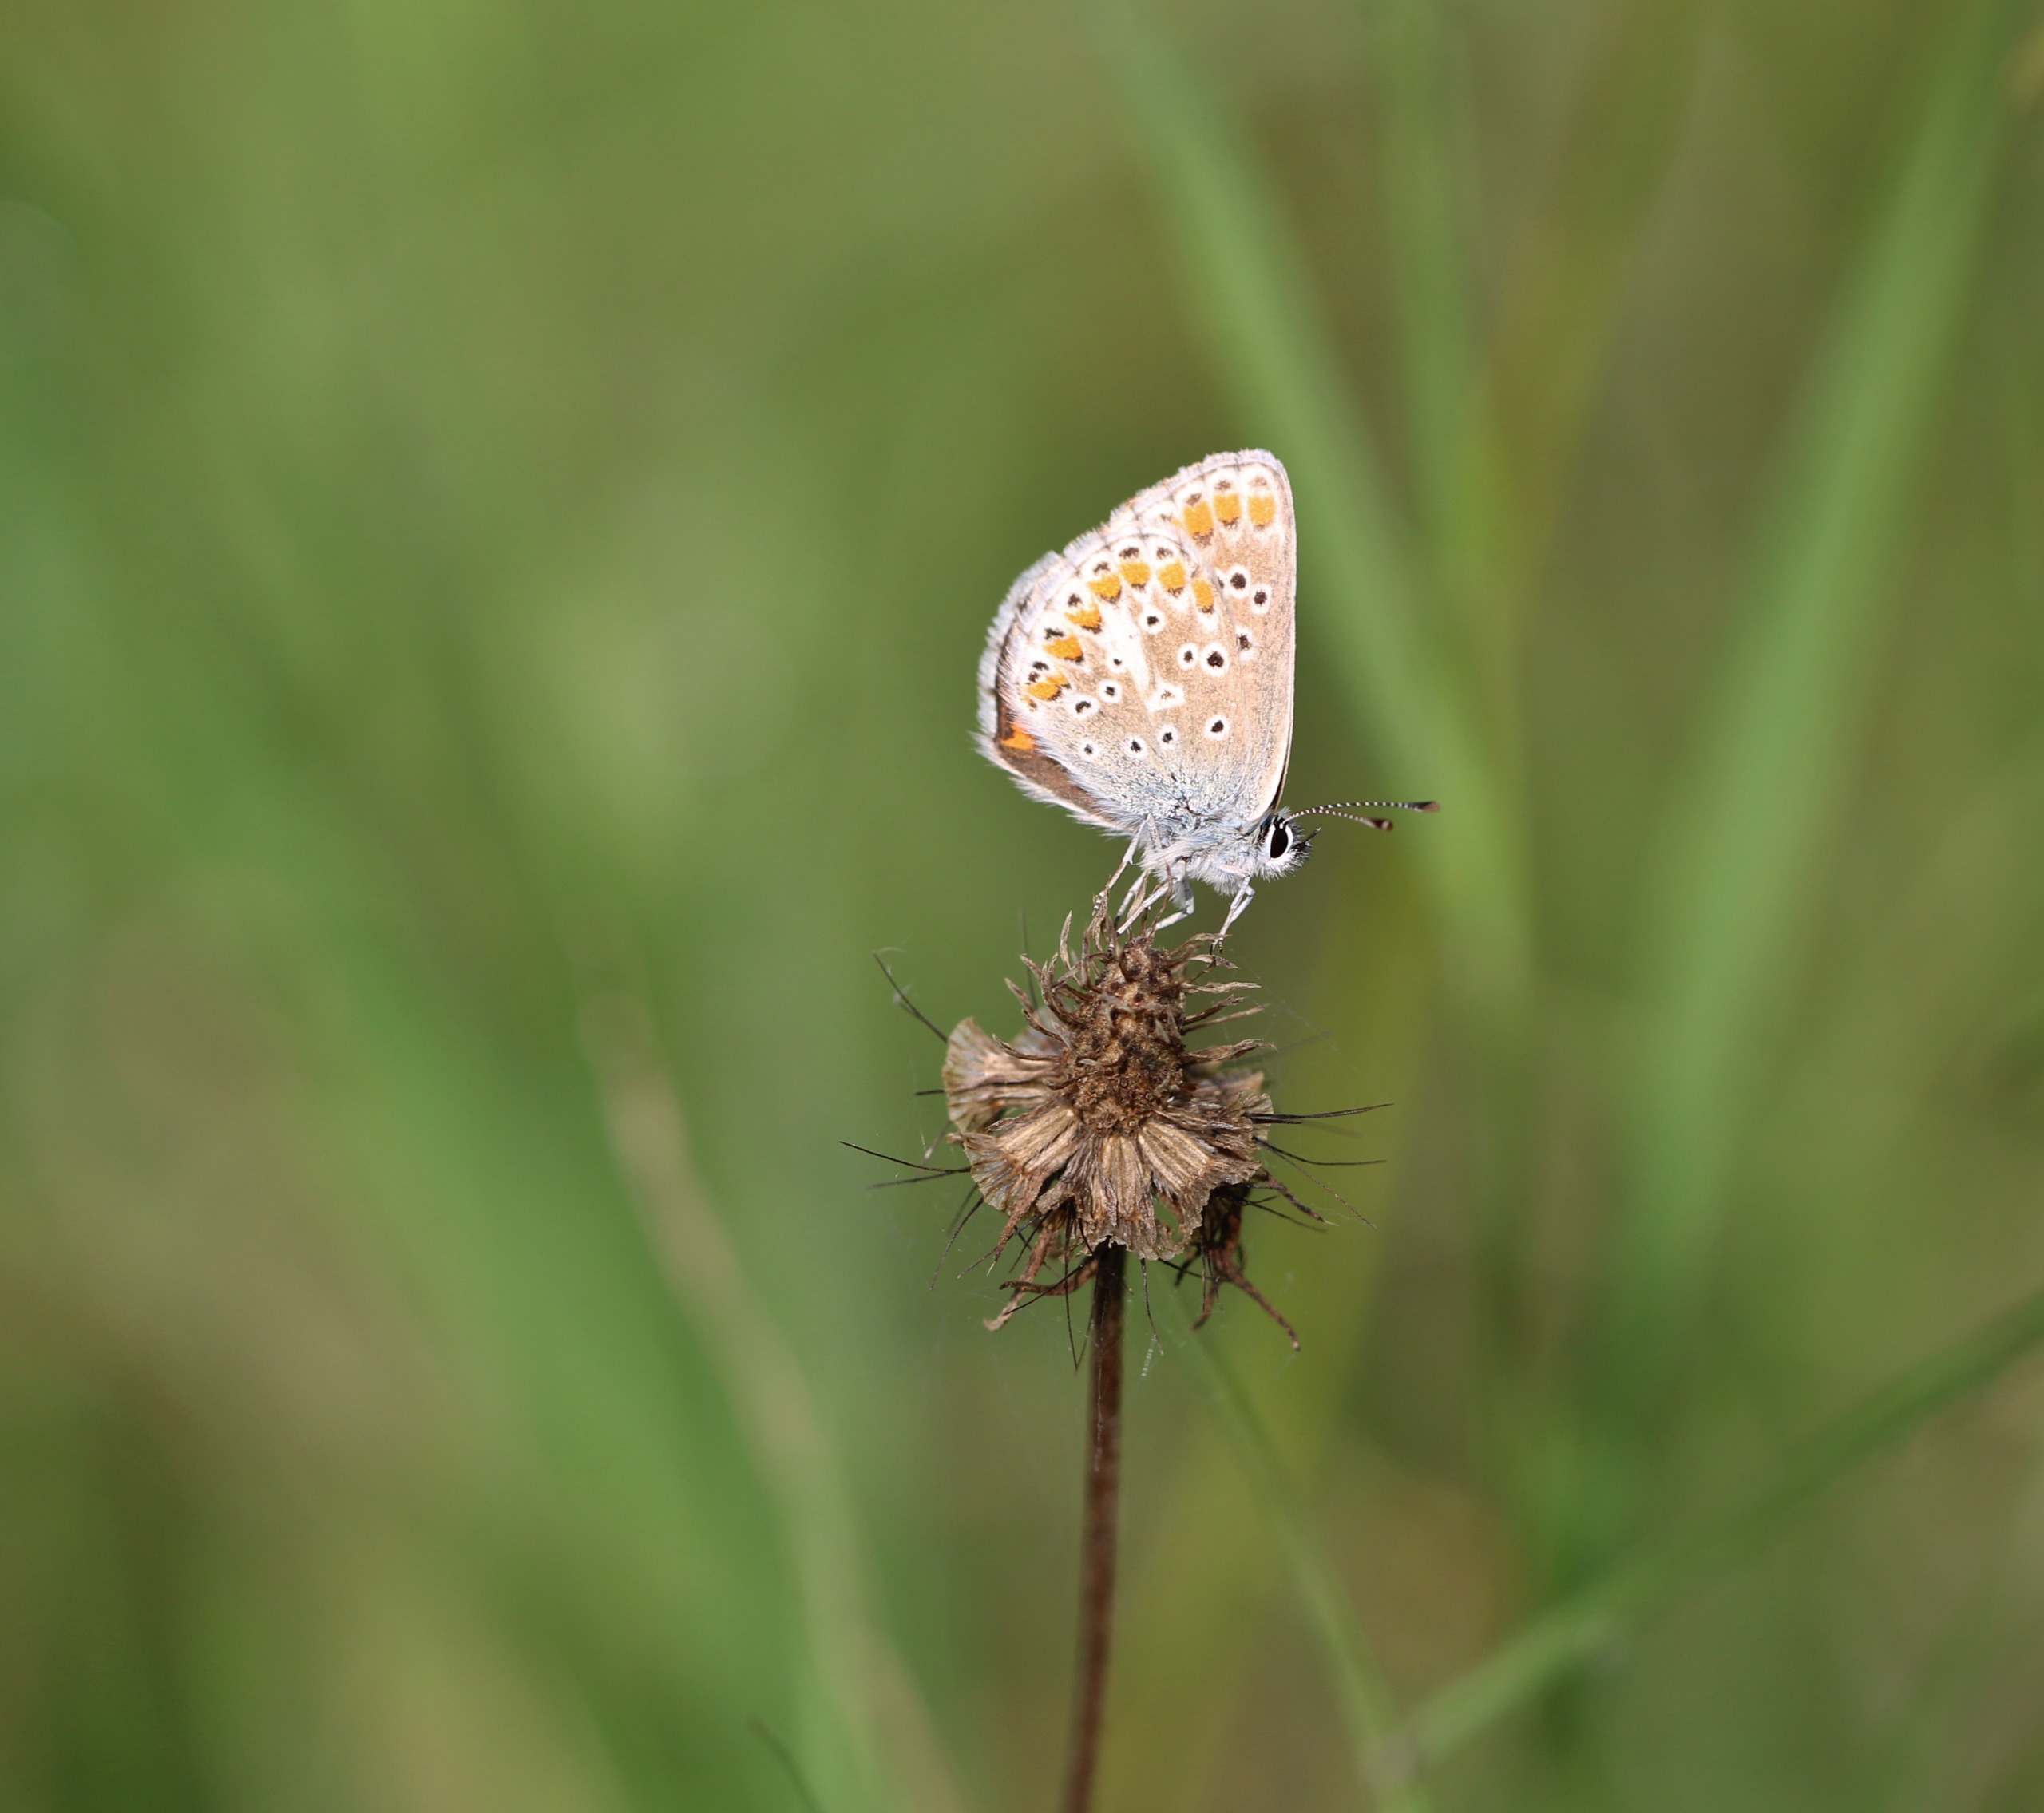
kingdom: Animalia
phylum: Arthropoda
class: Insecta
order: Lepidoptera
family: Lycaenidae
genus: Aricia
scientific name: Aricia agestis
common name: Rødplettet blåfugl
